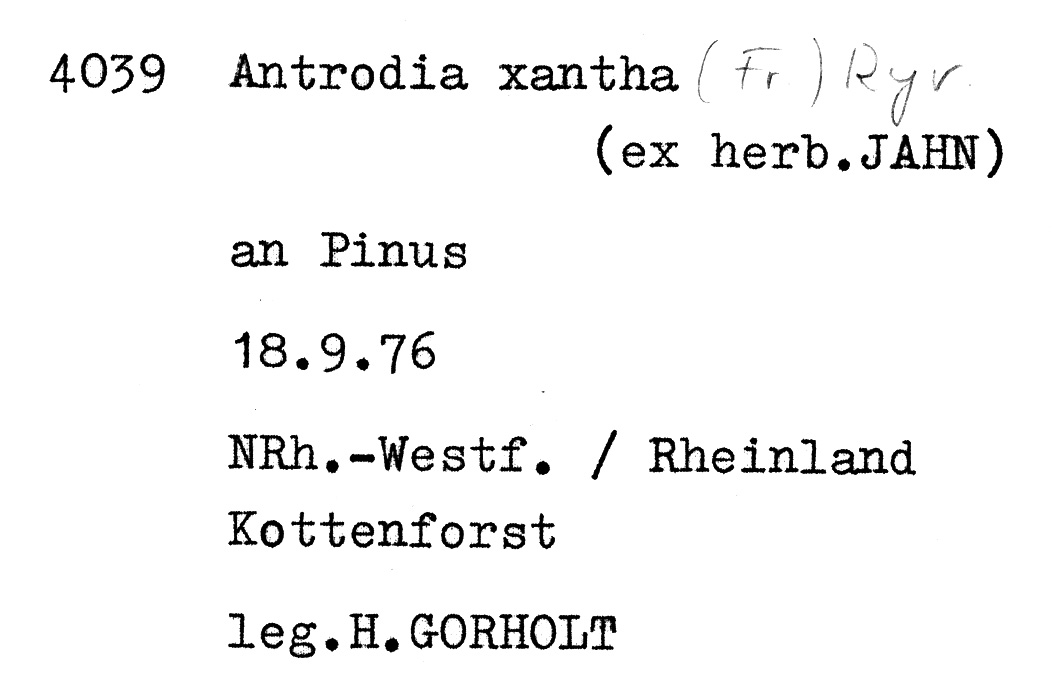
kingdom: Fungi
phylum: Basidiomycota
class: Agaricomycetes
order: Polyporales
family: Fomitopsidaceae
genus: Daedalea
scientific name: Daedalea xantha
